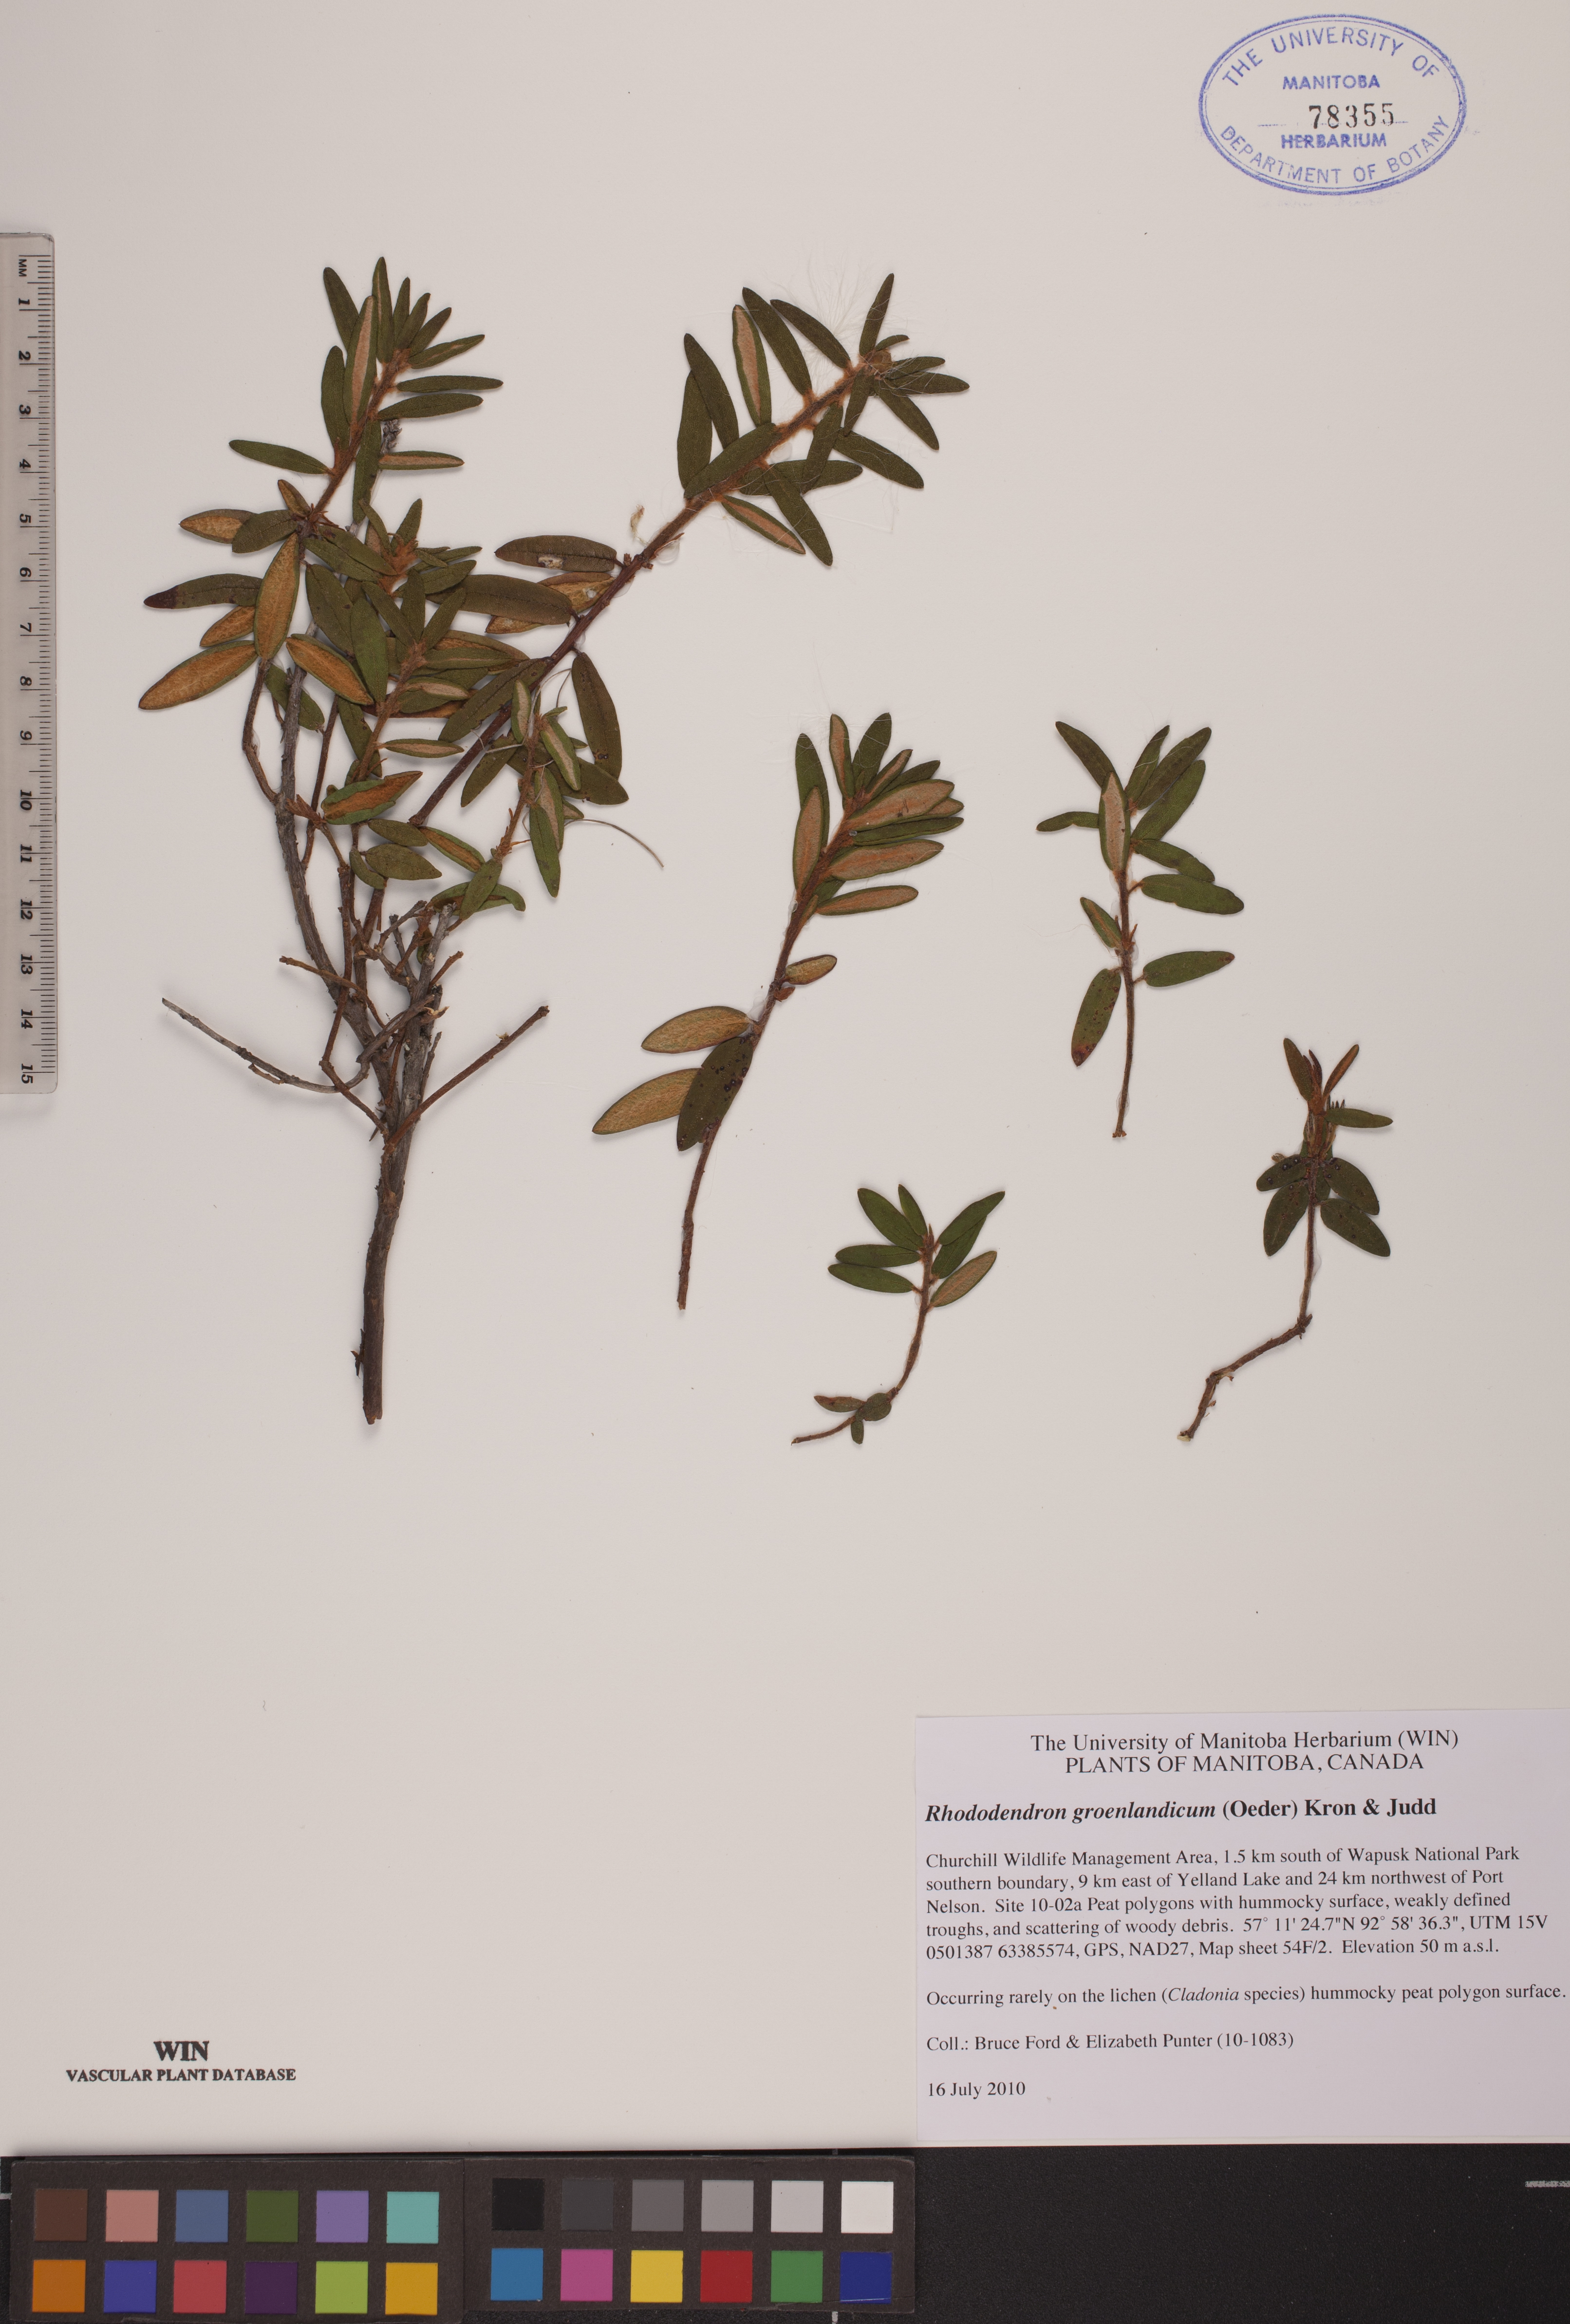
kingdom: Plantae
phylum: Tracheophyta
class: Magnoliopsida
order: Ericales
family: Ericaceae
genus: Rhododendron
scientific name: Rhododendron groenlandicum
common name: Bog labrador tea
